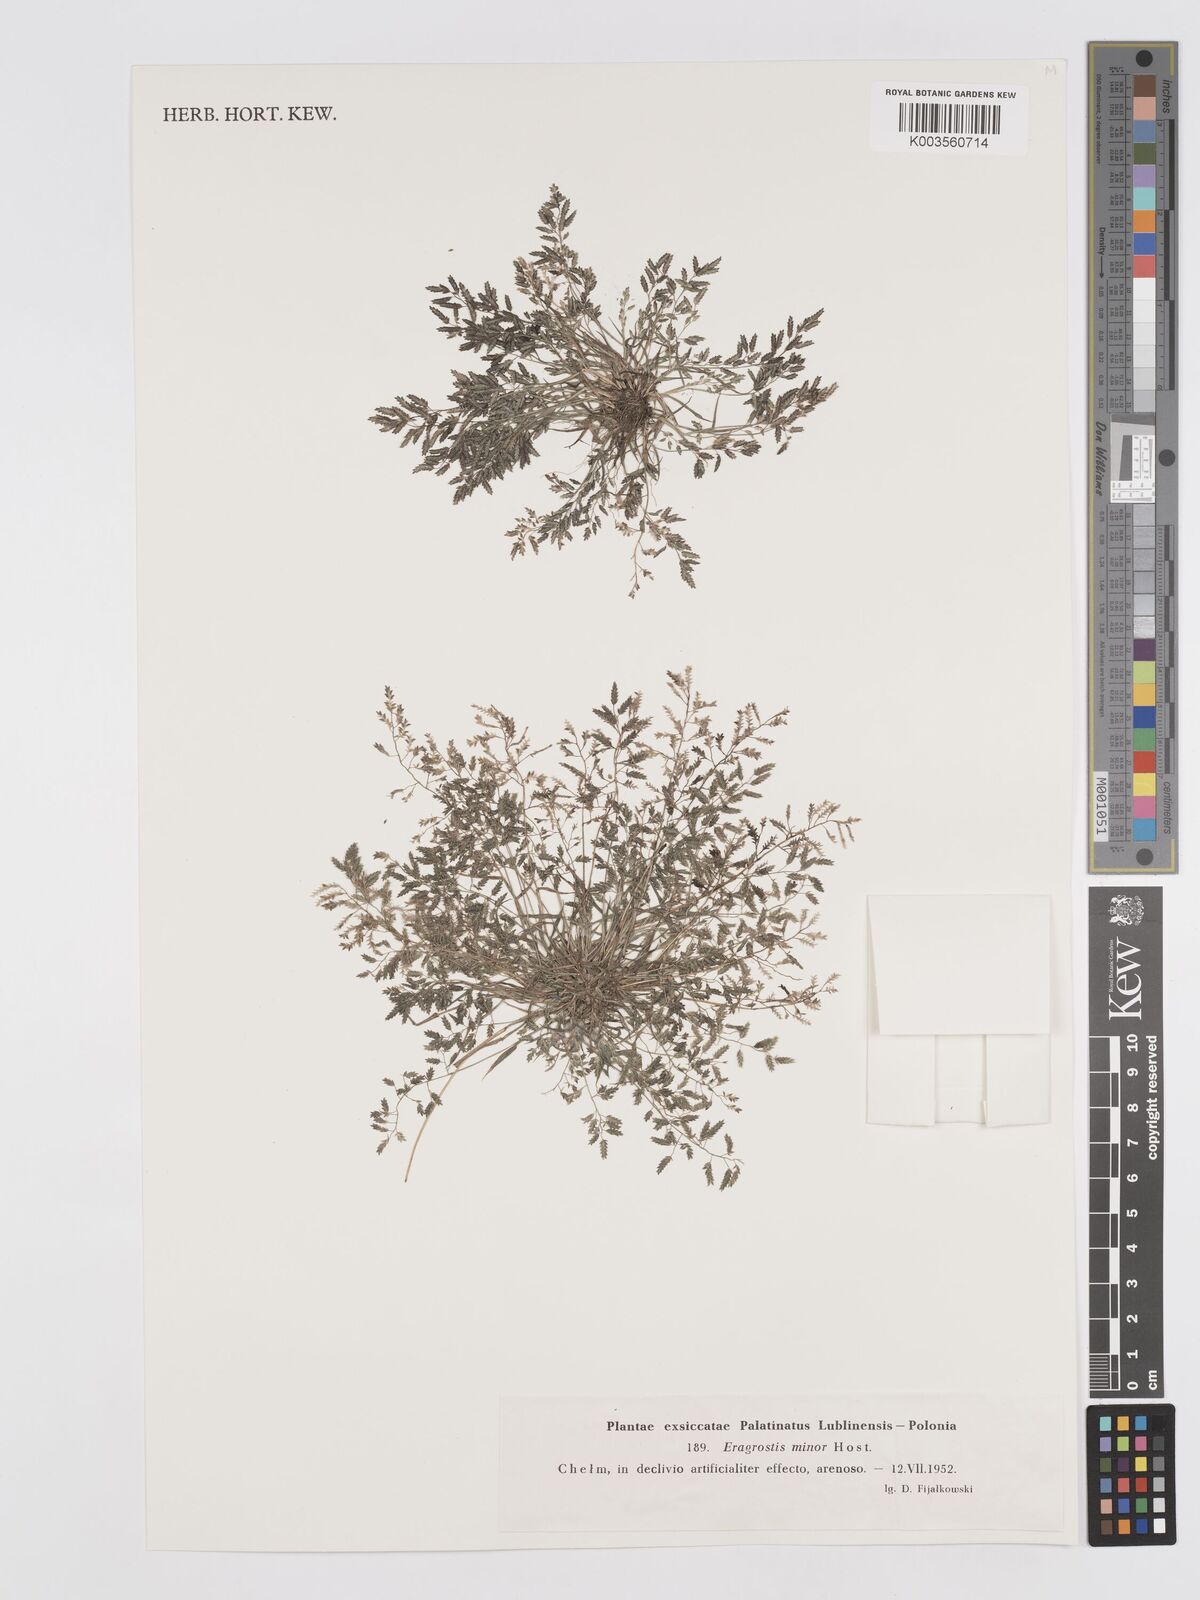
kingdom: Plantae
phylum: Tracheophyta
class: Liliopsida
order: Poales
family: Poaceae
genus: Eragrostis
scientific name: Eragrostis minor
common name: Small love-grass
